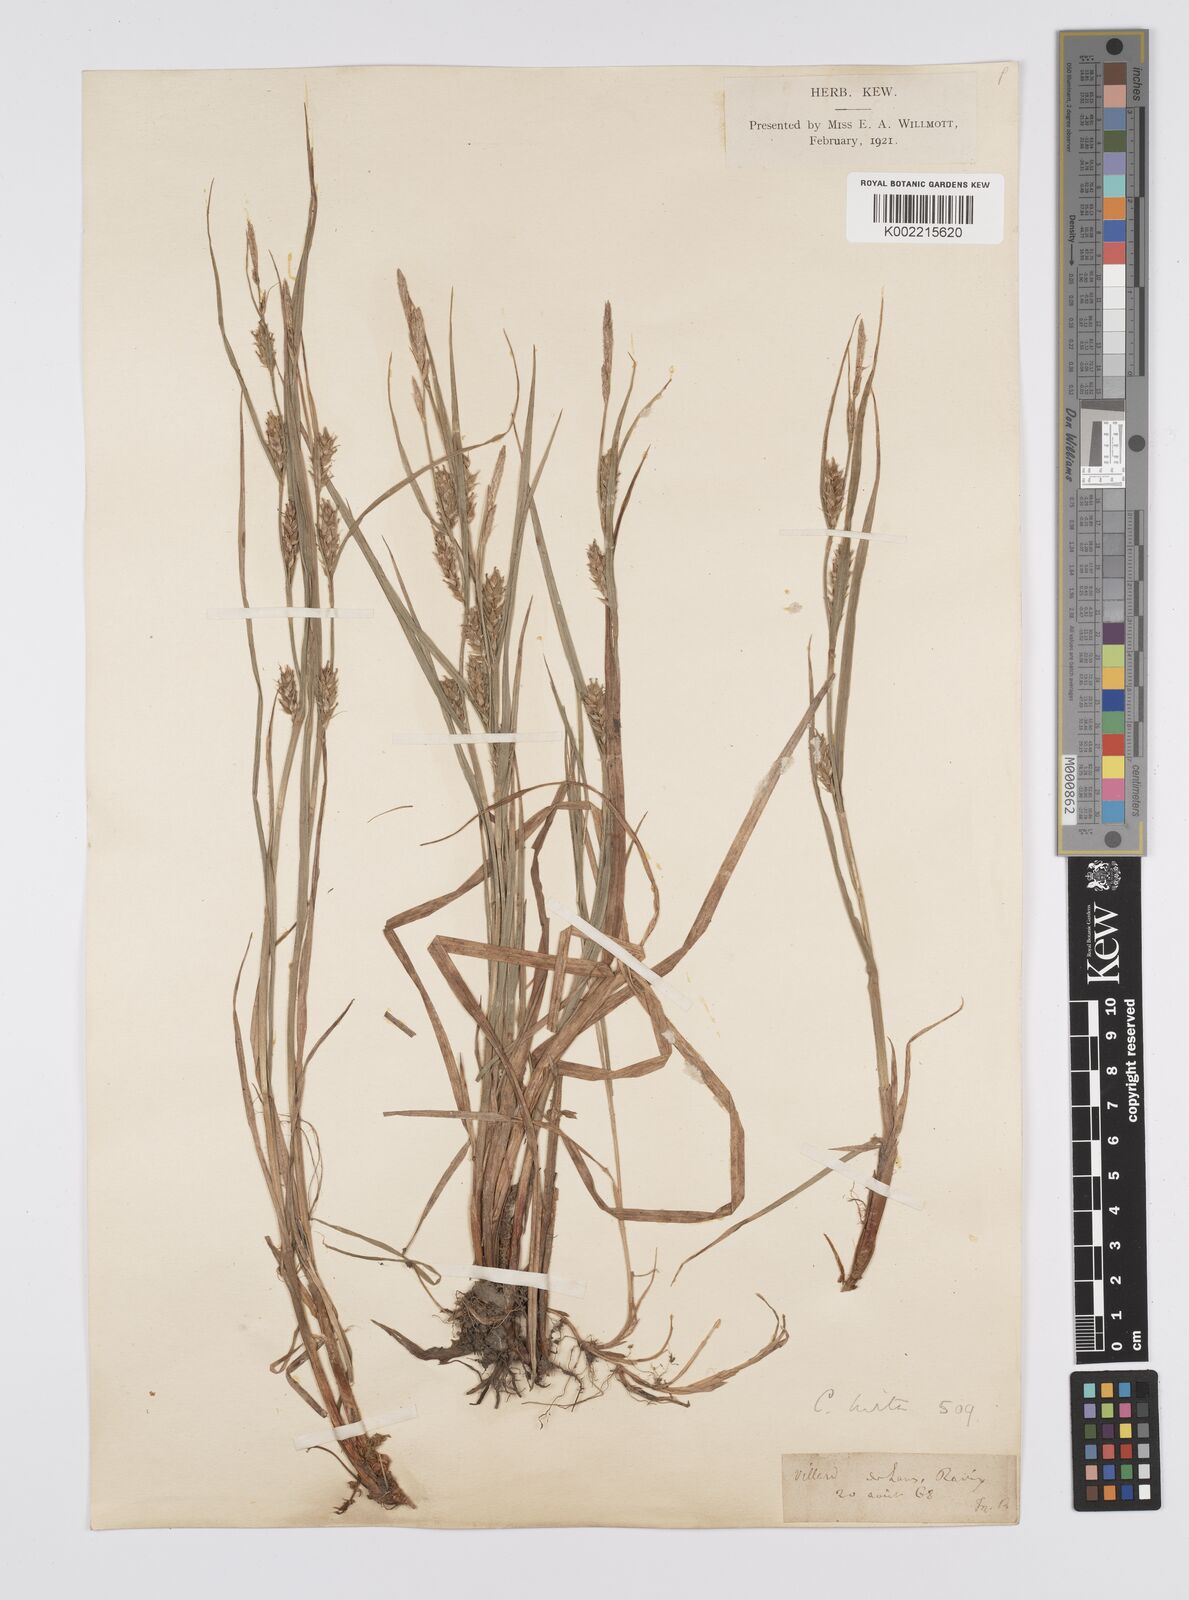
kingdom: Plantae
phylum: Tracheophyta
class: Liliopsida
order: Poales
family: Cyperaceae
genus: Carex
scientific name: Carex hirta
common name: Hairy sedge
